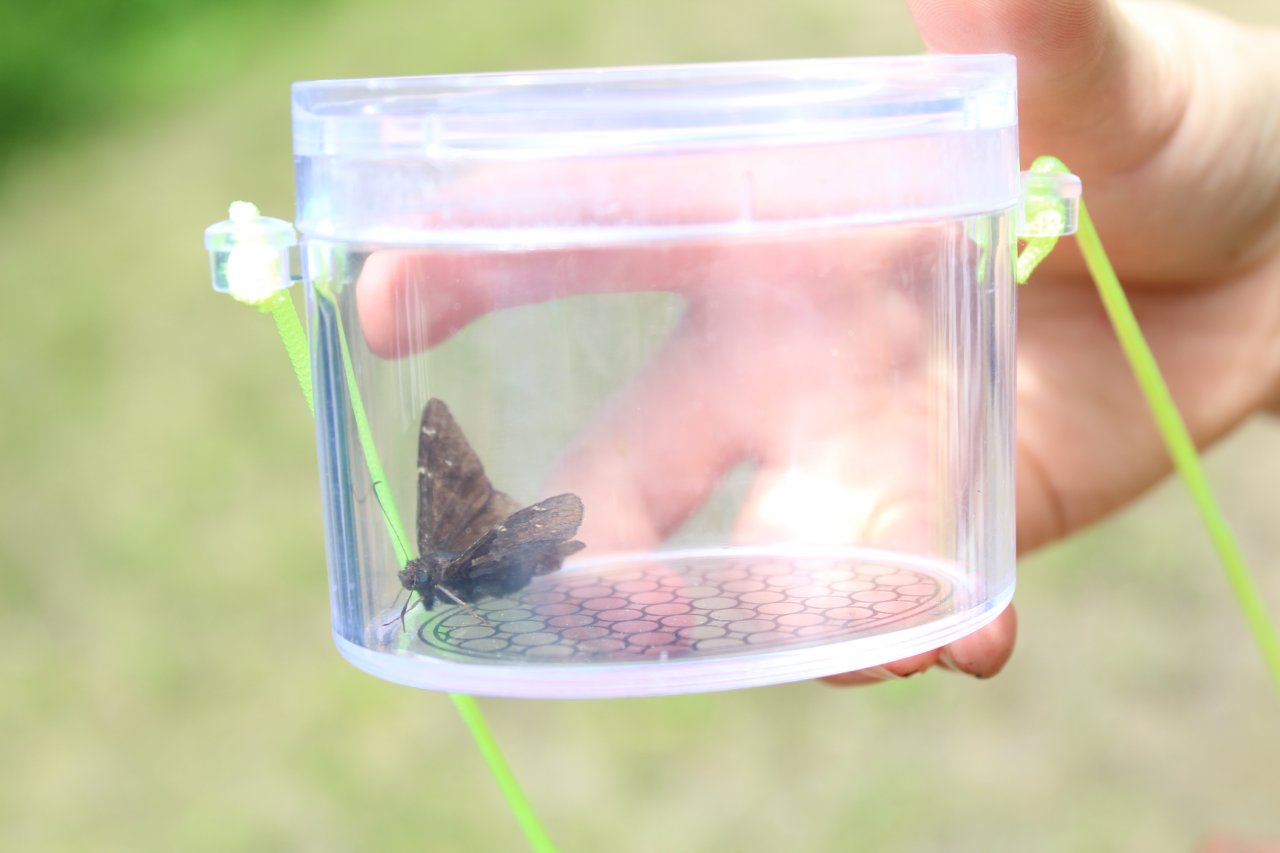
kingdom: Animalia
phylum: Arthropoda
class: Insecta
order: Lepidoptera
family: Hesperiidae
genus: Autochton
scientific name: Autochton
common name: Northern Cloudywing
